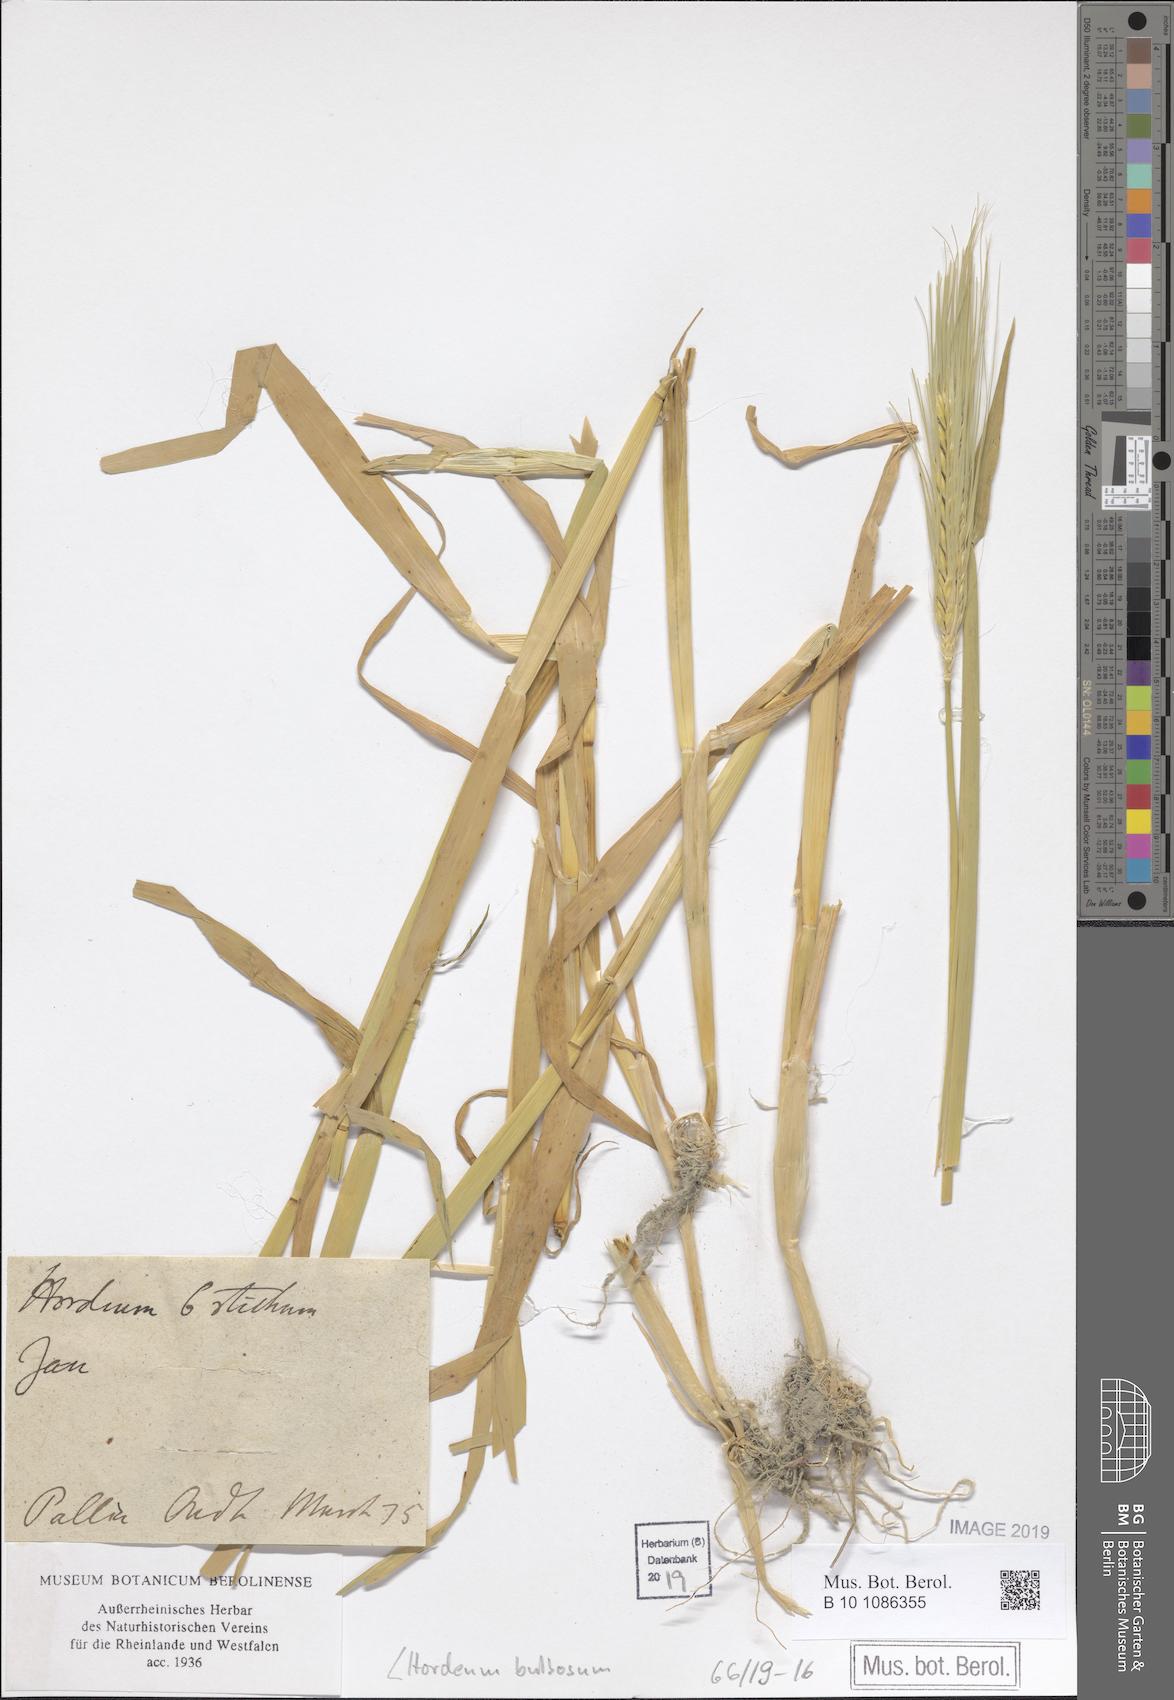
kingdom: Plantae
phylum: Tracheophyta
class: Liliopsida
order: Poales
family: Poaceae
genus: Hordeum
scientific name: Hordeum bulbosum
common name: Bulbous barley
